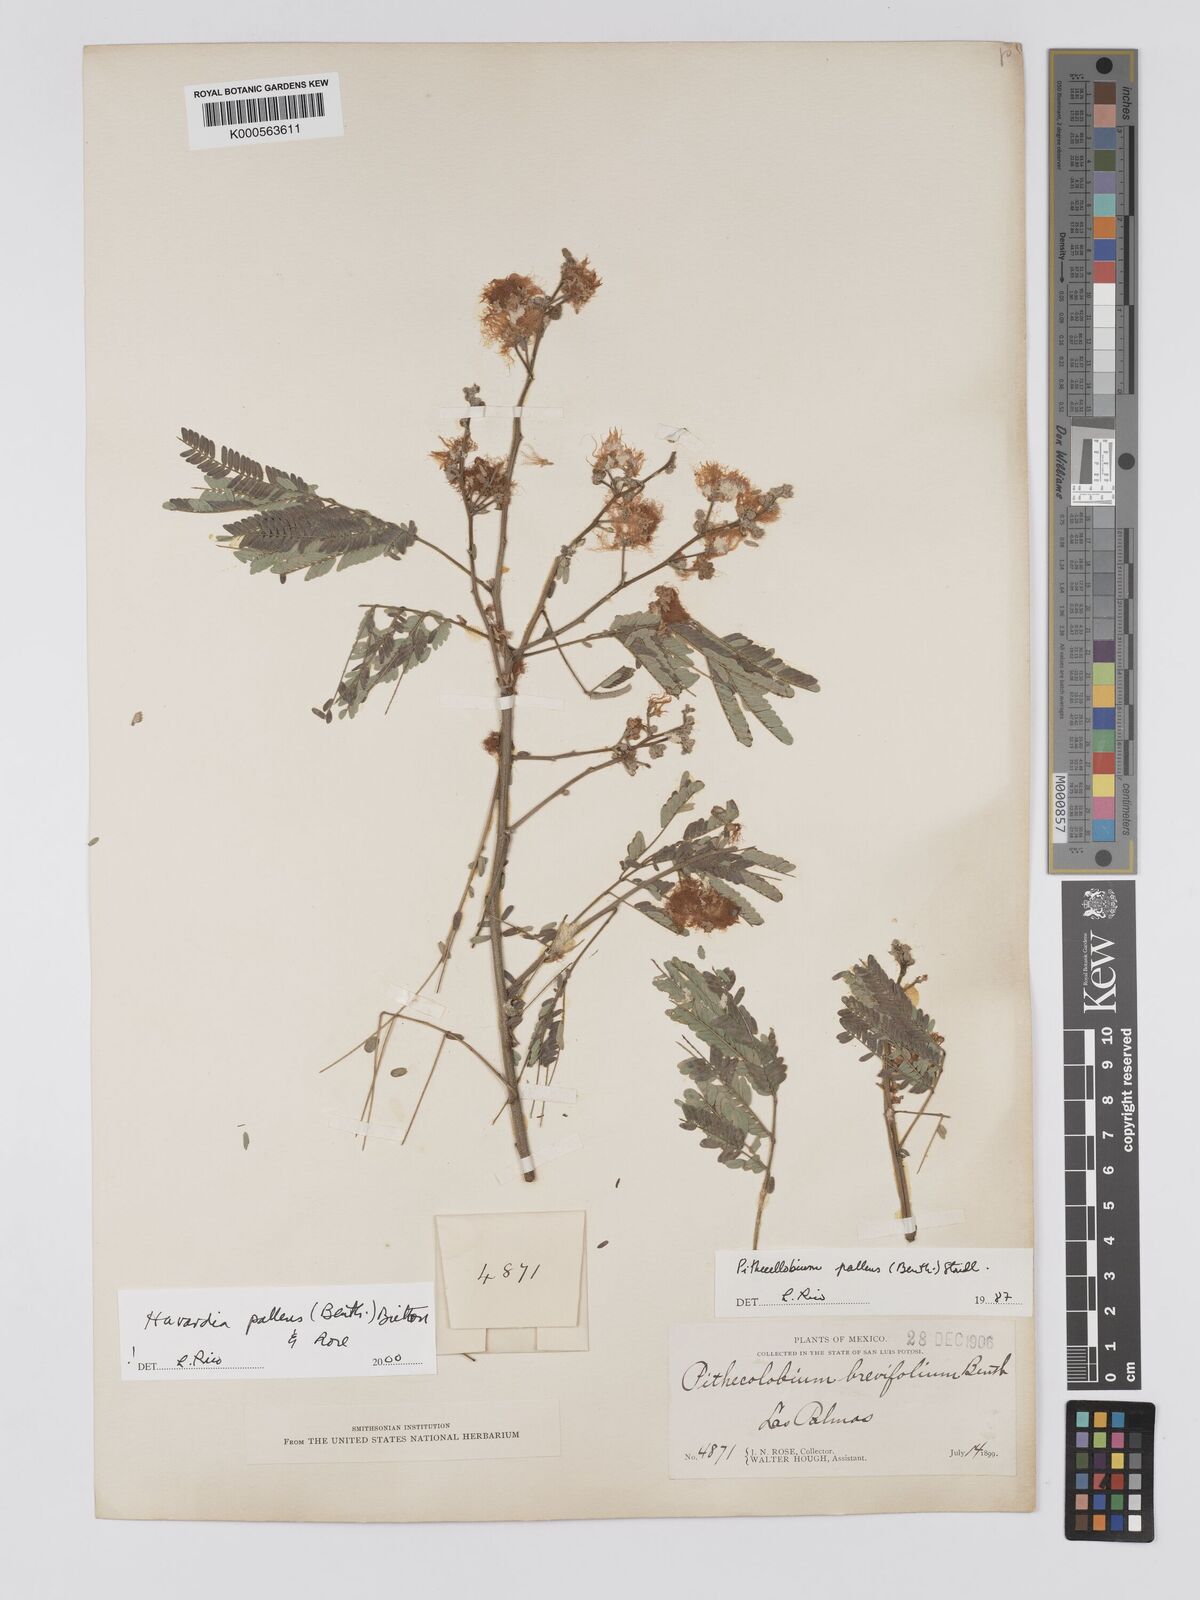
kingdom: Plantae
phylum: Tracheophyta
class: Magnoliopsida
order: Fabales
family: Fabaceae
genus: Havardia
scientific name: Havardia pallens
